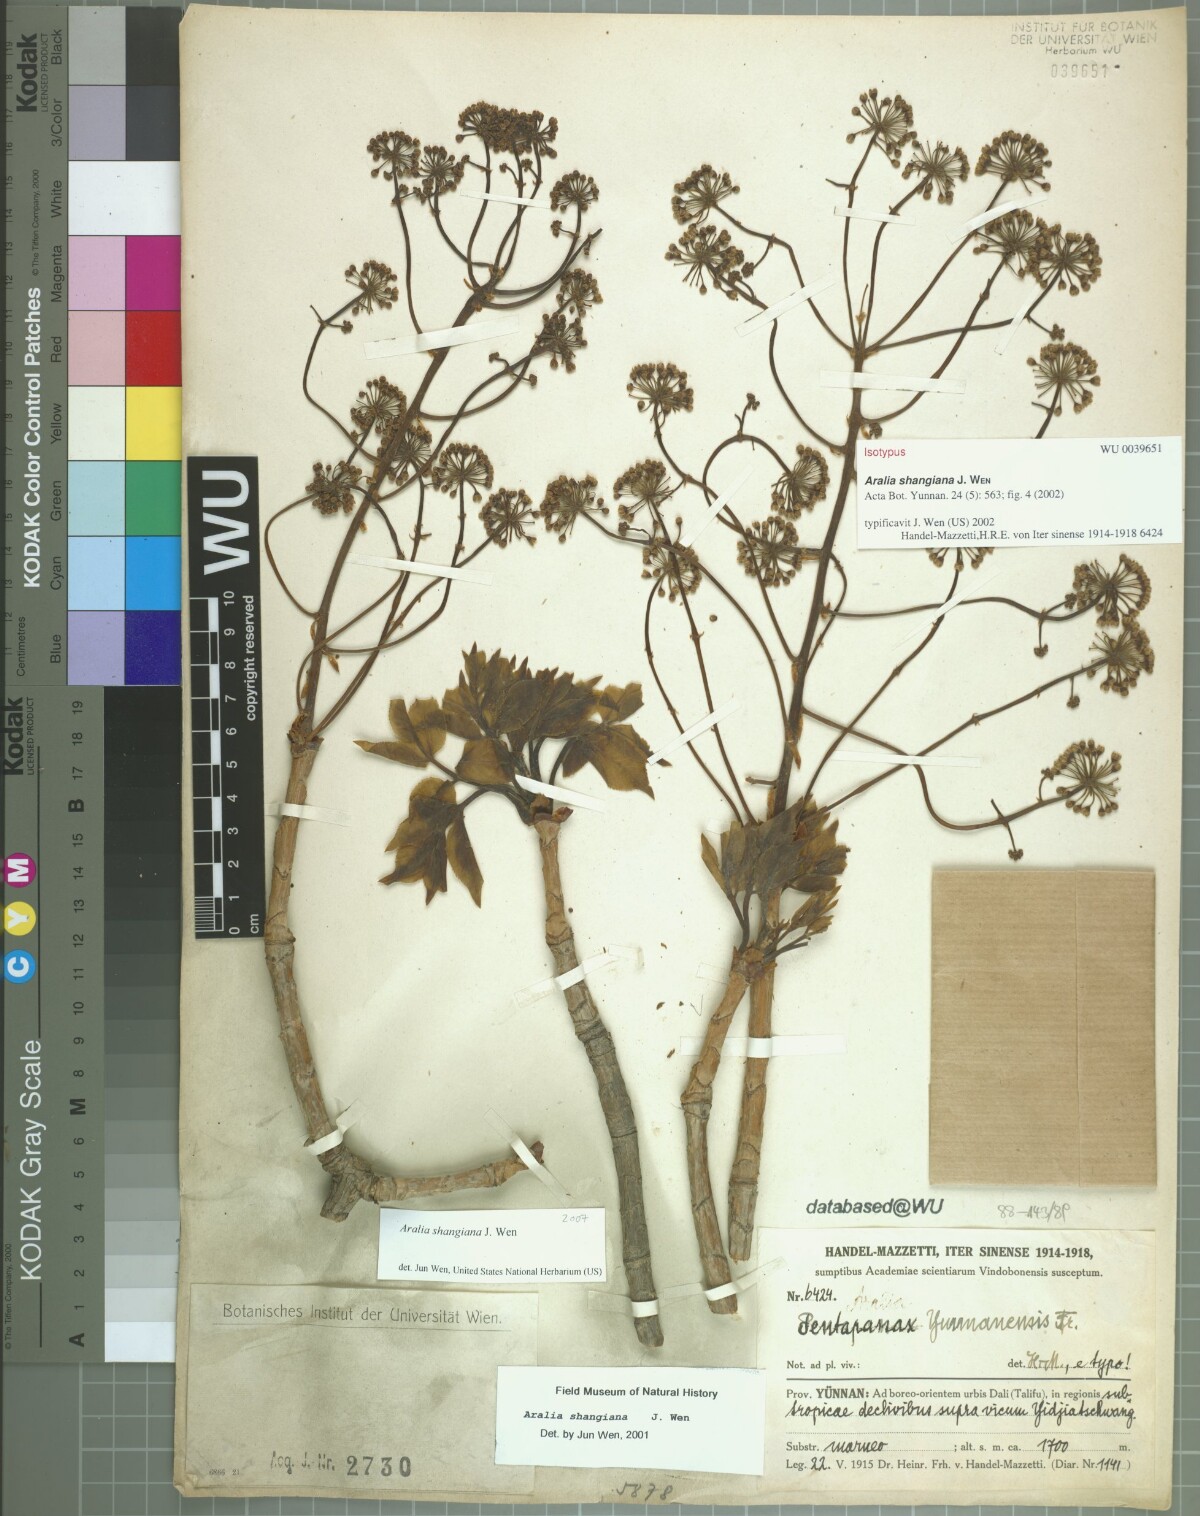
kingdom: Plantae
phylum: Tracheophyta
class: Magnoliopsida
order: Apiales
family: Araliaceae
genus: Aralia
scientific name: Aralia delavayi
